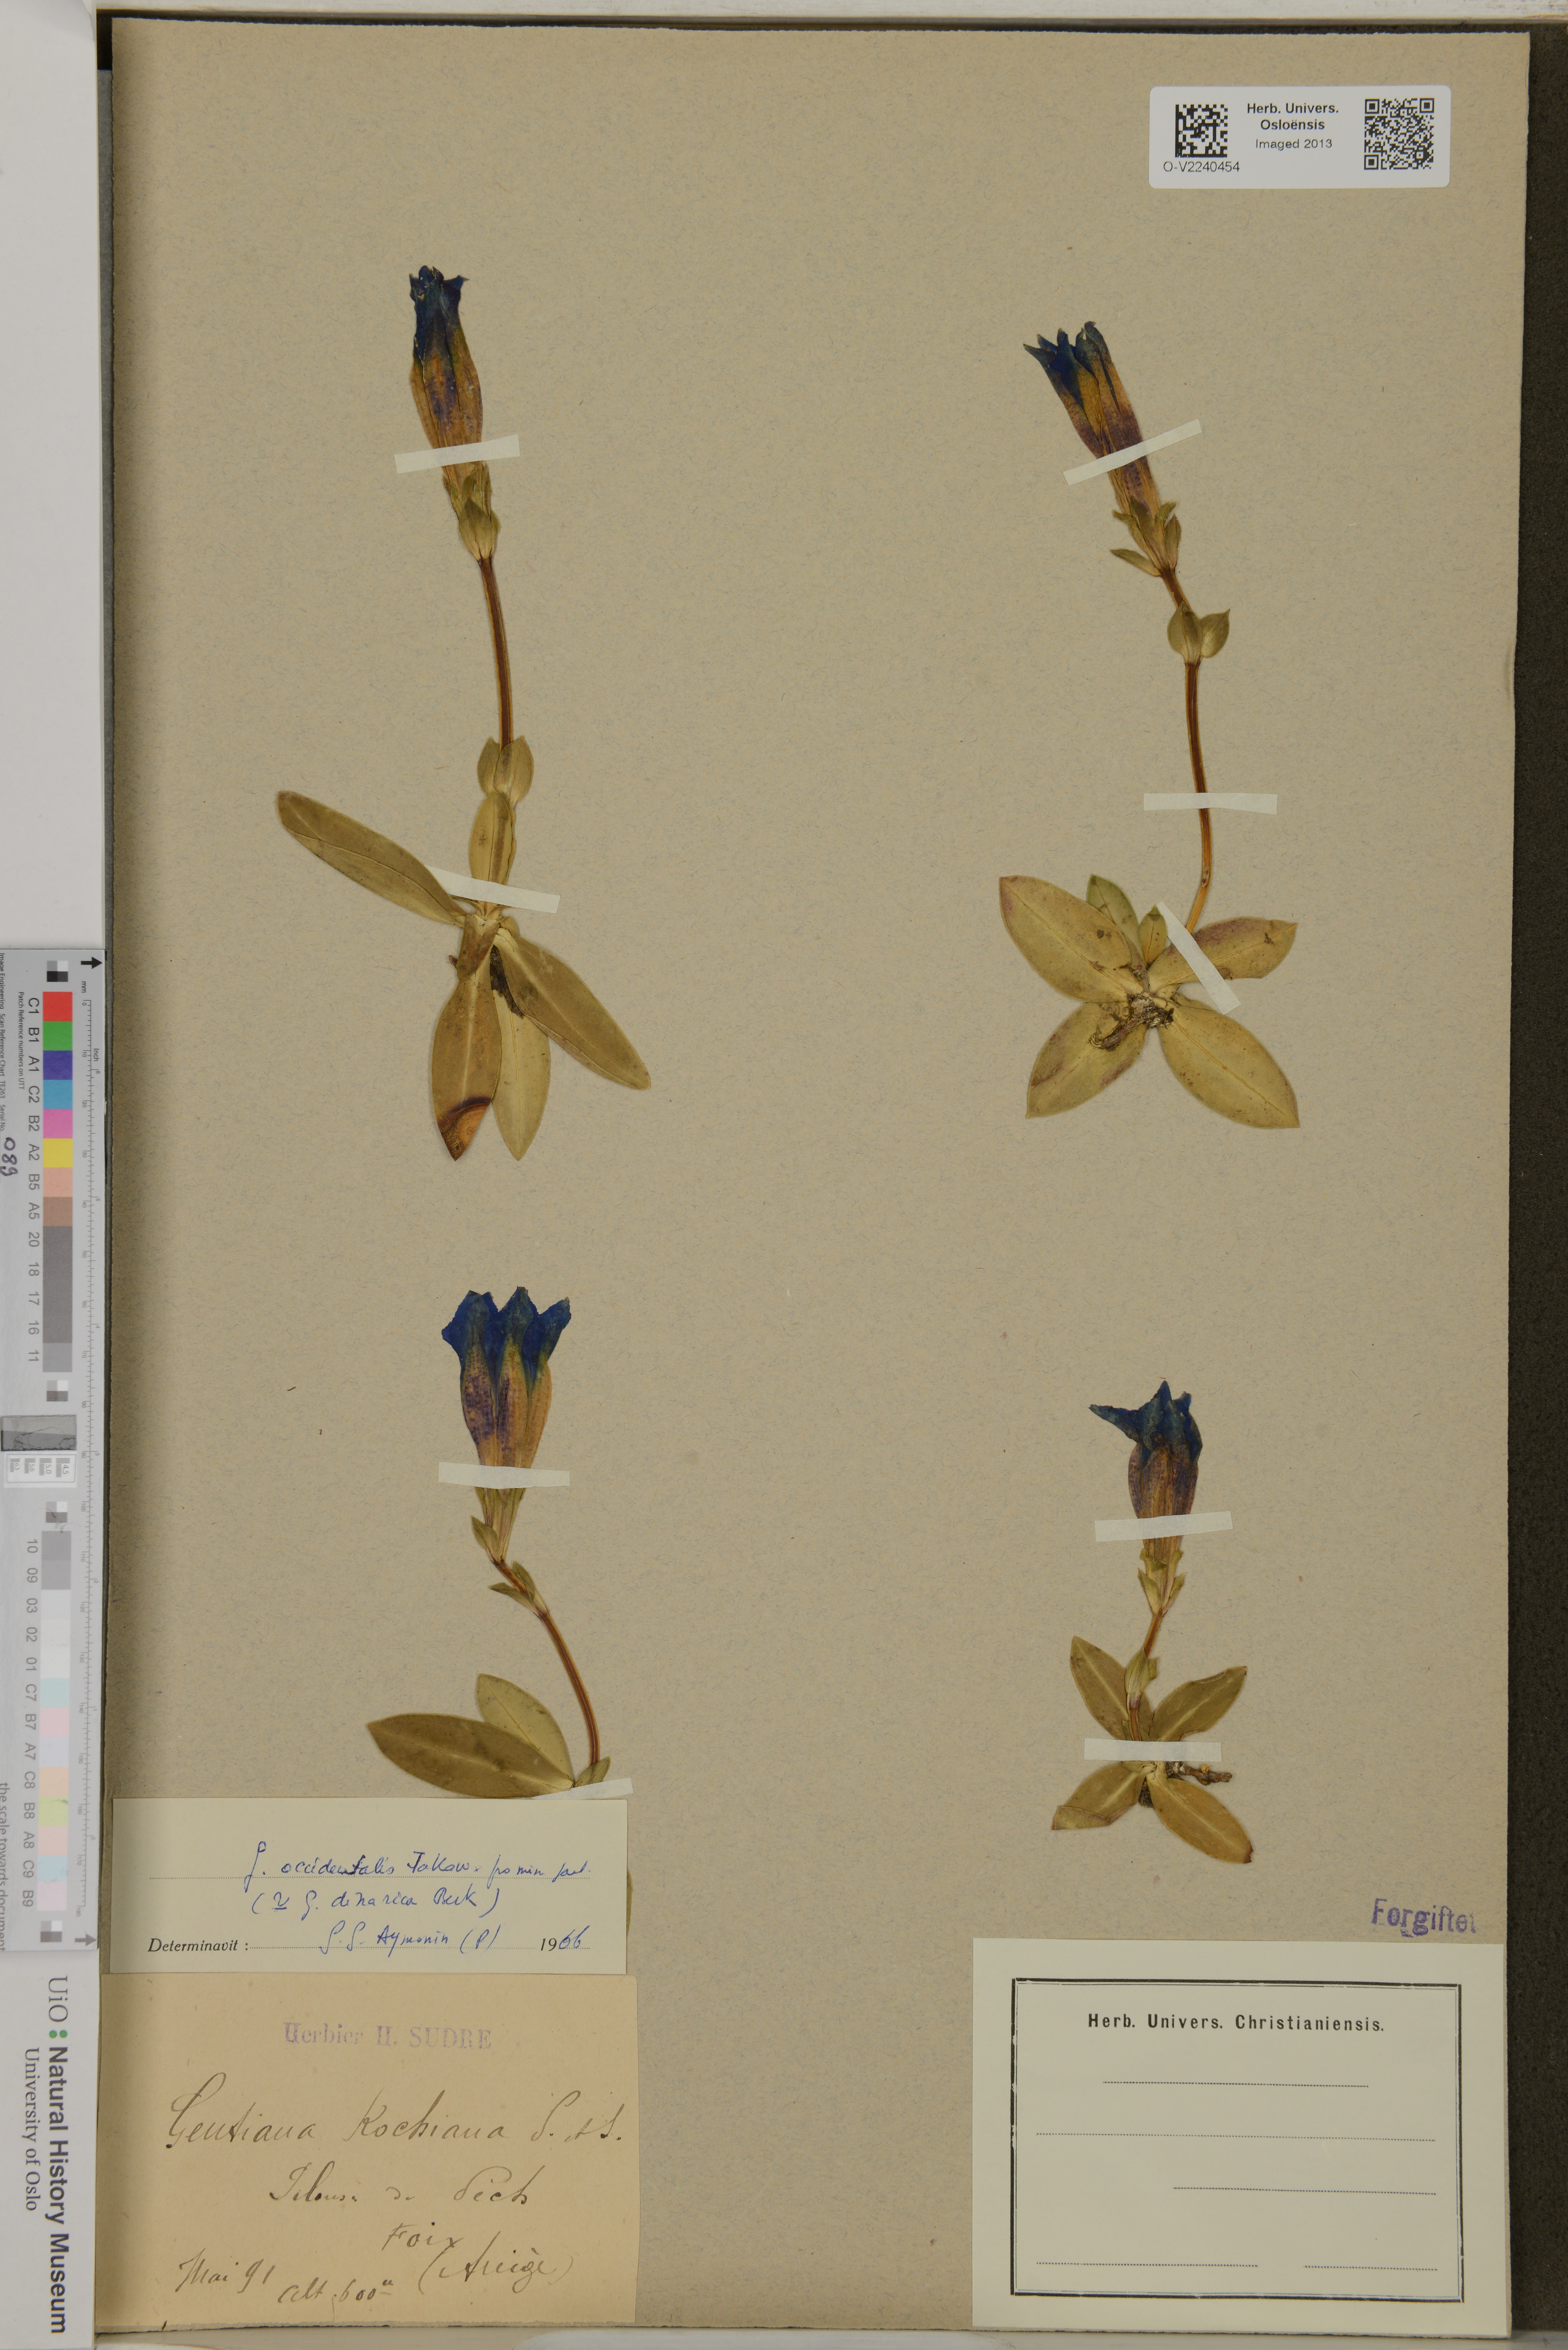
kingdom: Plantae
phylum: Tracheophyta
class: Magnoliopsida
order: Gentianales
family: Gentianaceae
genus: Gentiana
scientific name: Gentiana angustifolia
